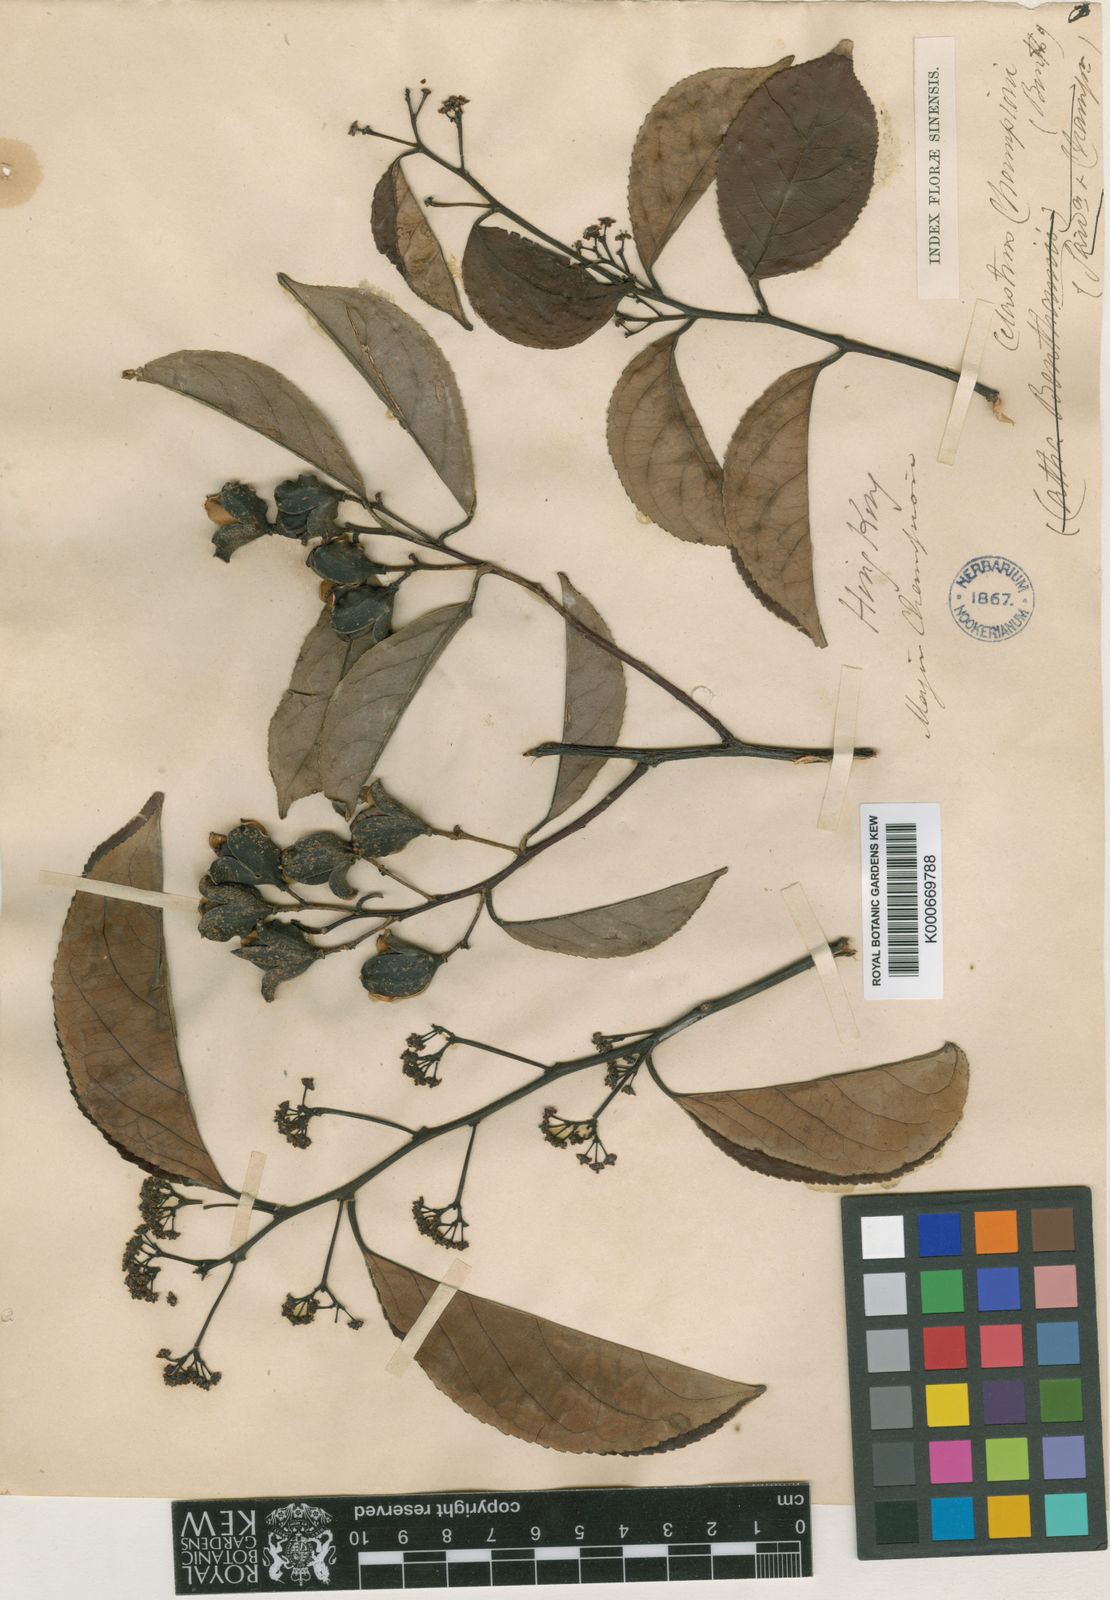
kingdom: Plantae
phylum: Tracheophyta
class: Magnoliopsida
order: Celastrales
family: Celastraceae
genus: Celastrus
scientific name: Celastrus monospermus
